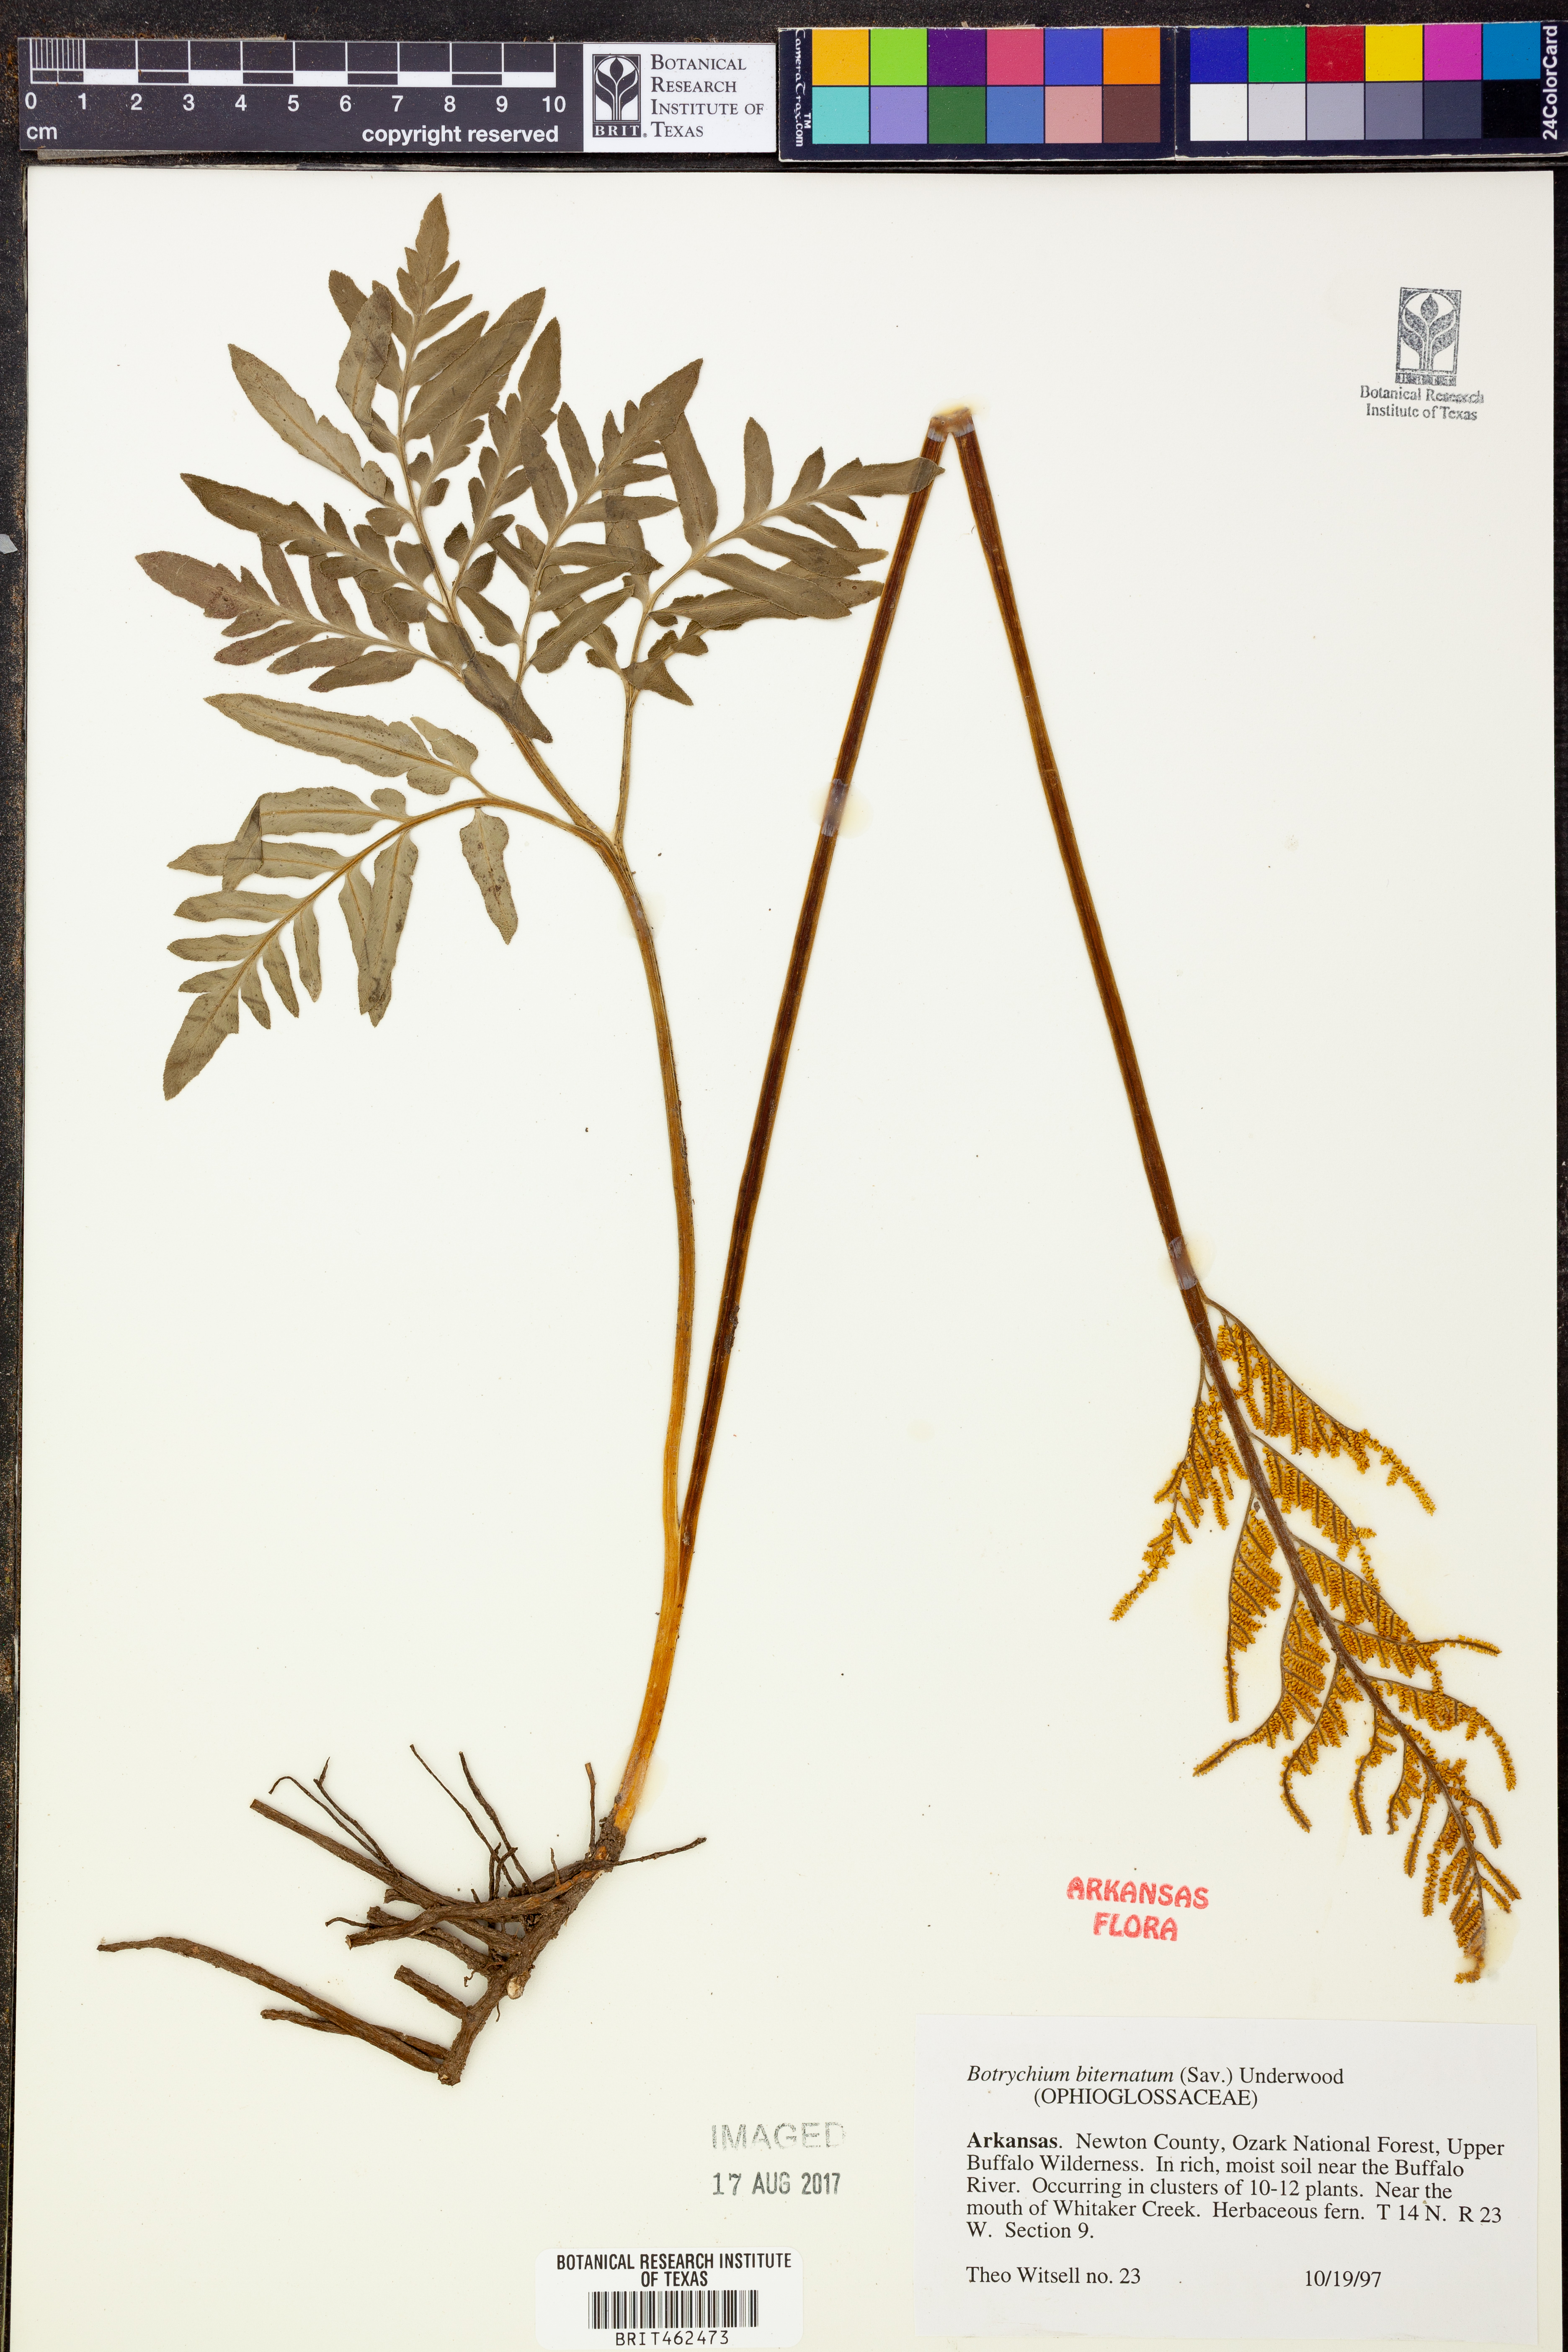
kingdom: Plantae
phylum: Tracheophyta
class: Polypodiopsida
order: Ophioglossales
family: Ophioglossaceae
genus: Sceptridium
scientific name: Sceptridium biternatum
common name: Sparse-lobed grapefern
